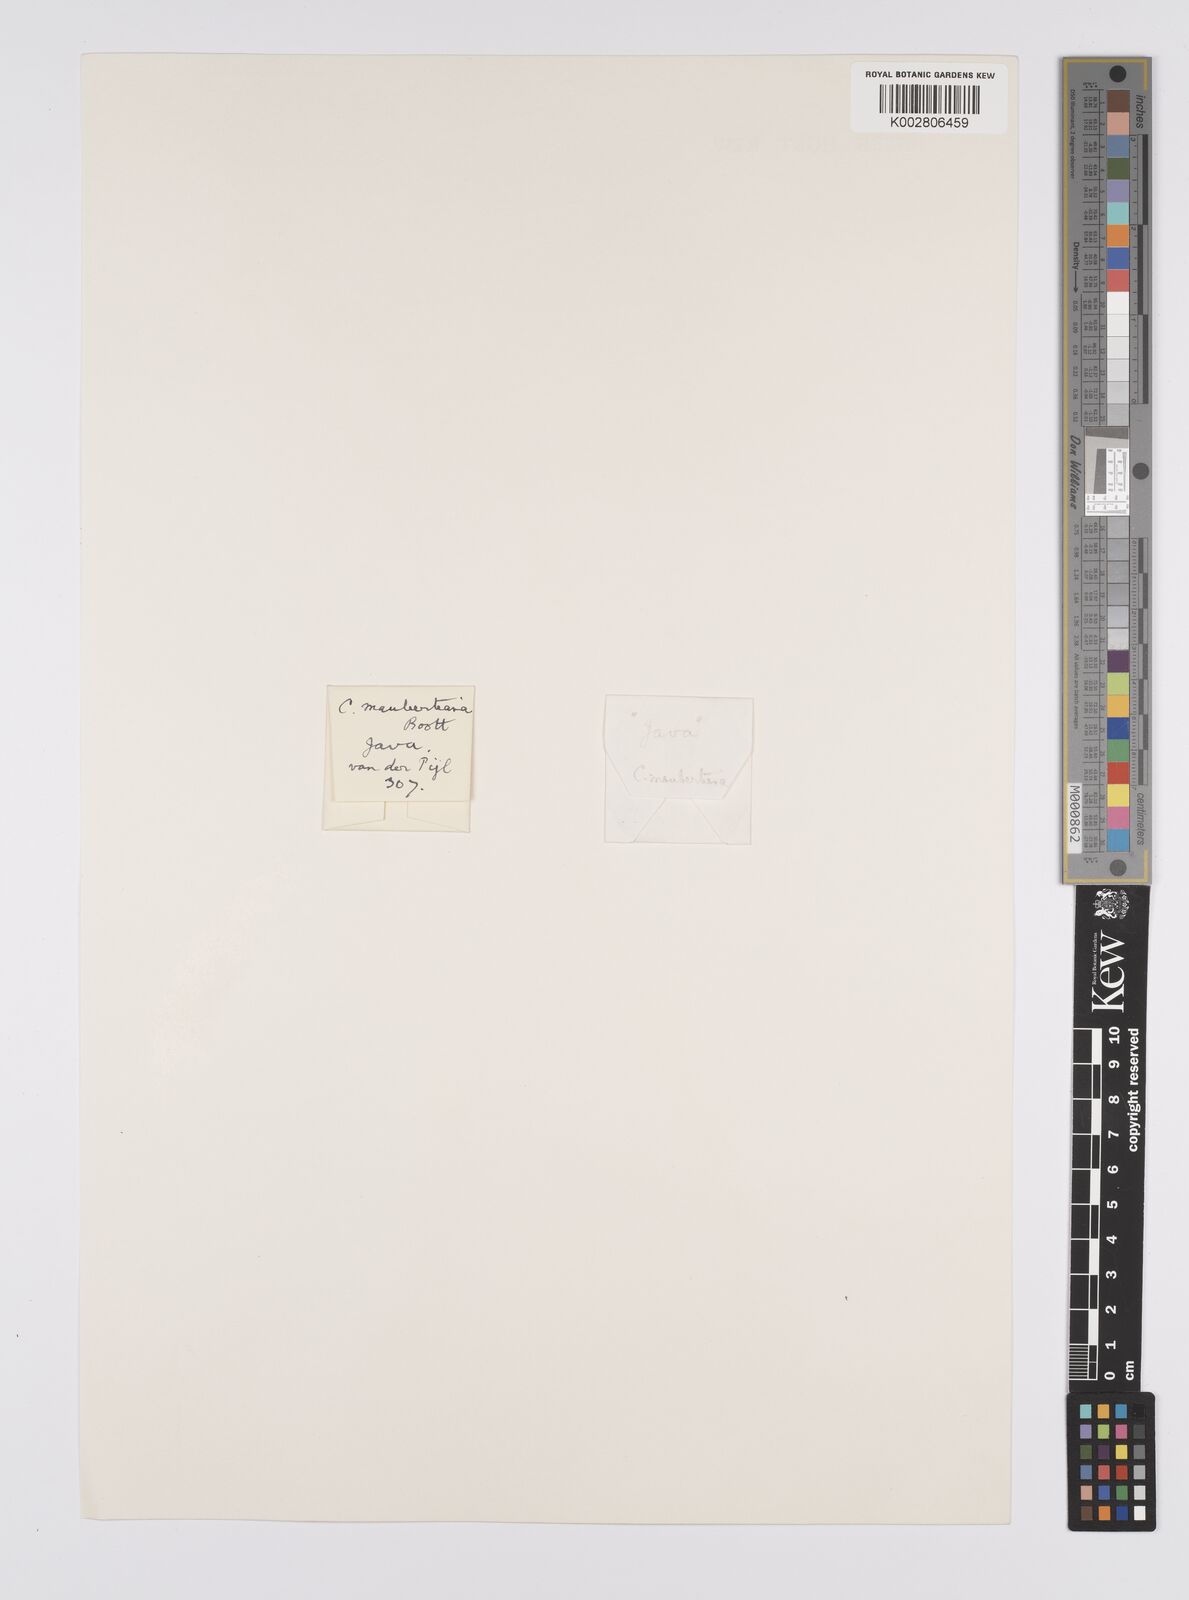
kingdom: Plantae
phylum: Tracheophyta
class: Liliopsida
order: Poales
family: Cyperaceae
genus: Carex
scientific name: Carex maubertiana
